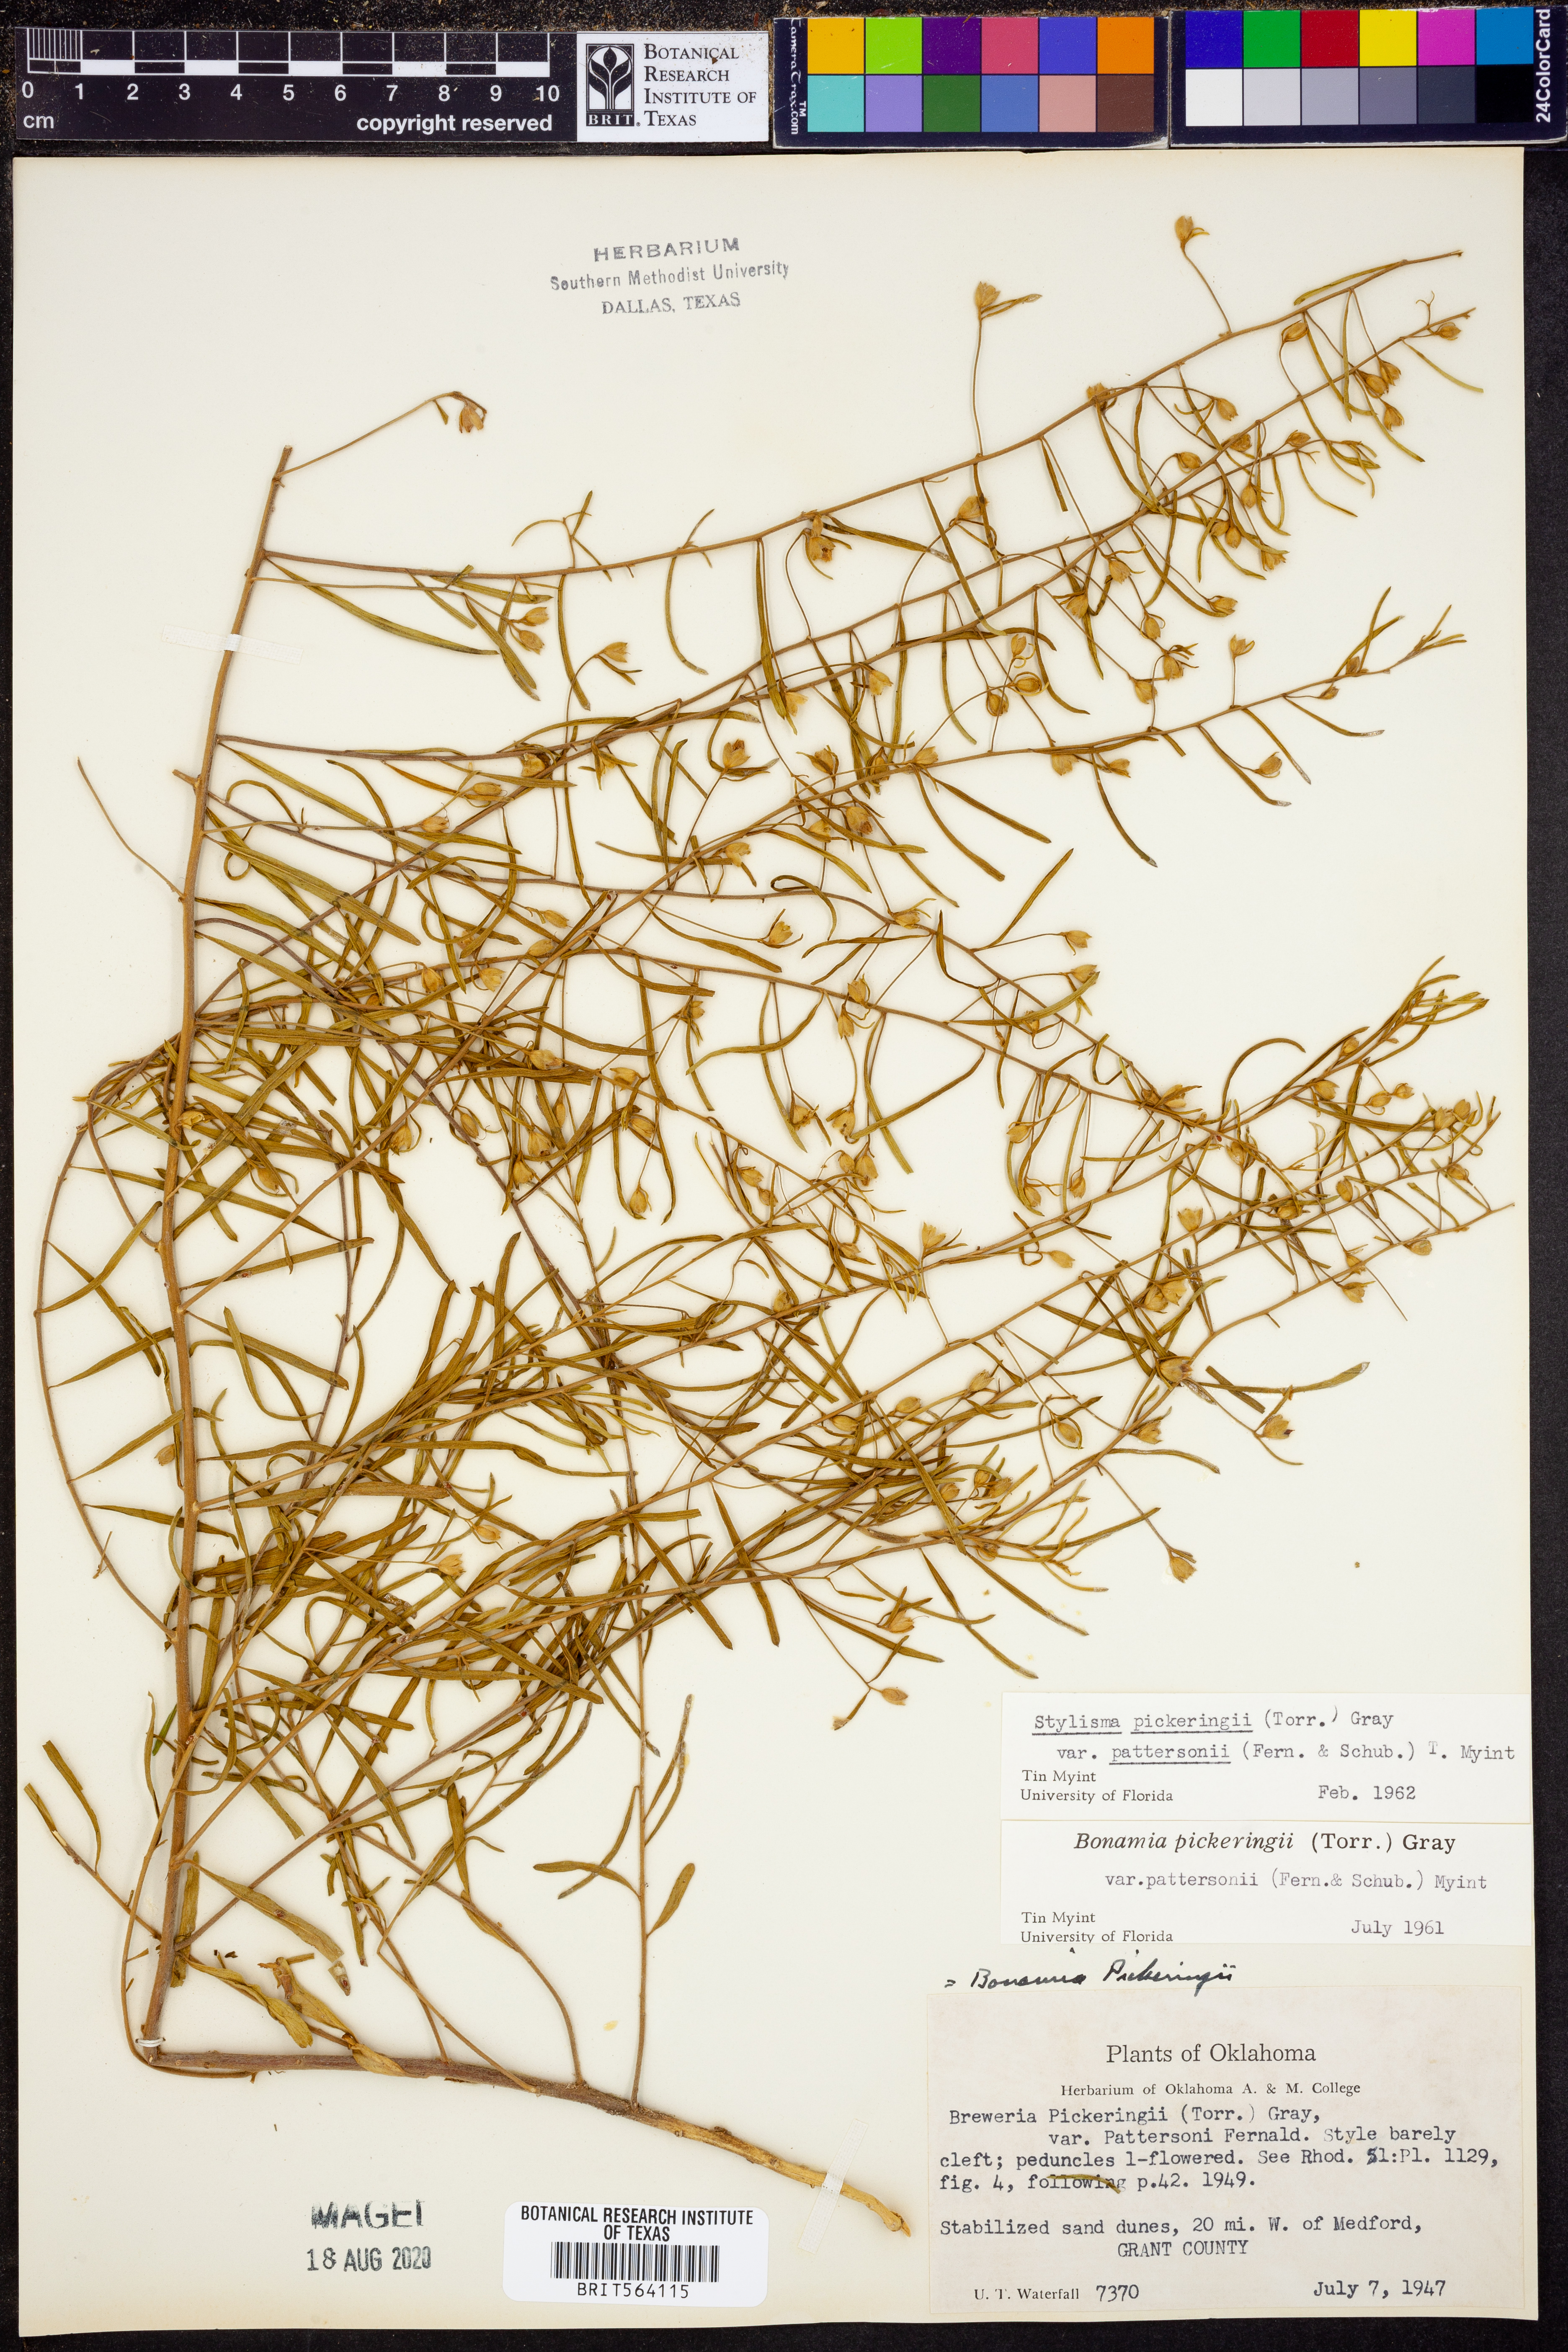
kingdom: Plantae
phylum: Tracheophyta
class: Magnoliopsida
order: Solanales
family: Convolvulaceae
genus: Stylisma
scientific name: Stylisma pickeringii
